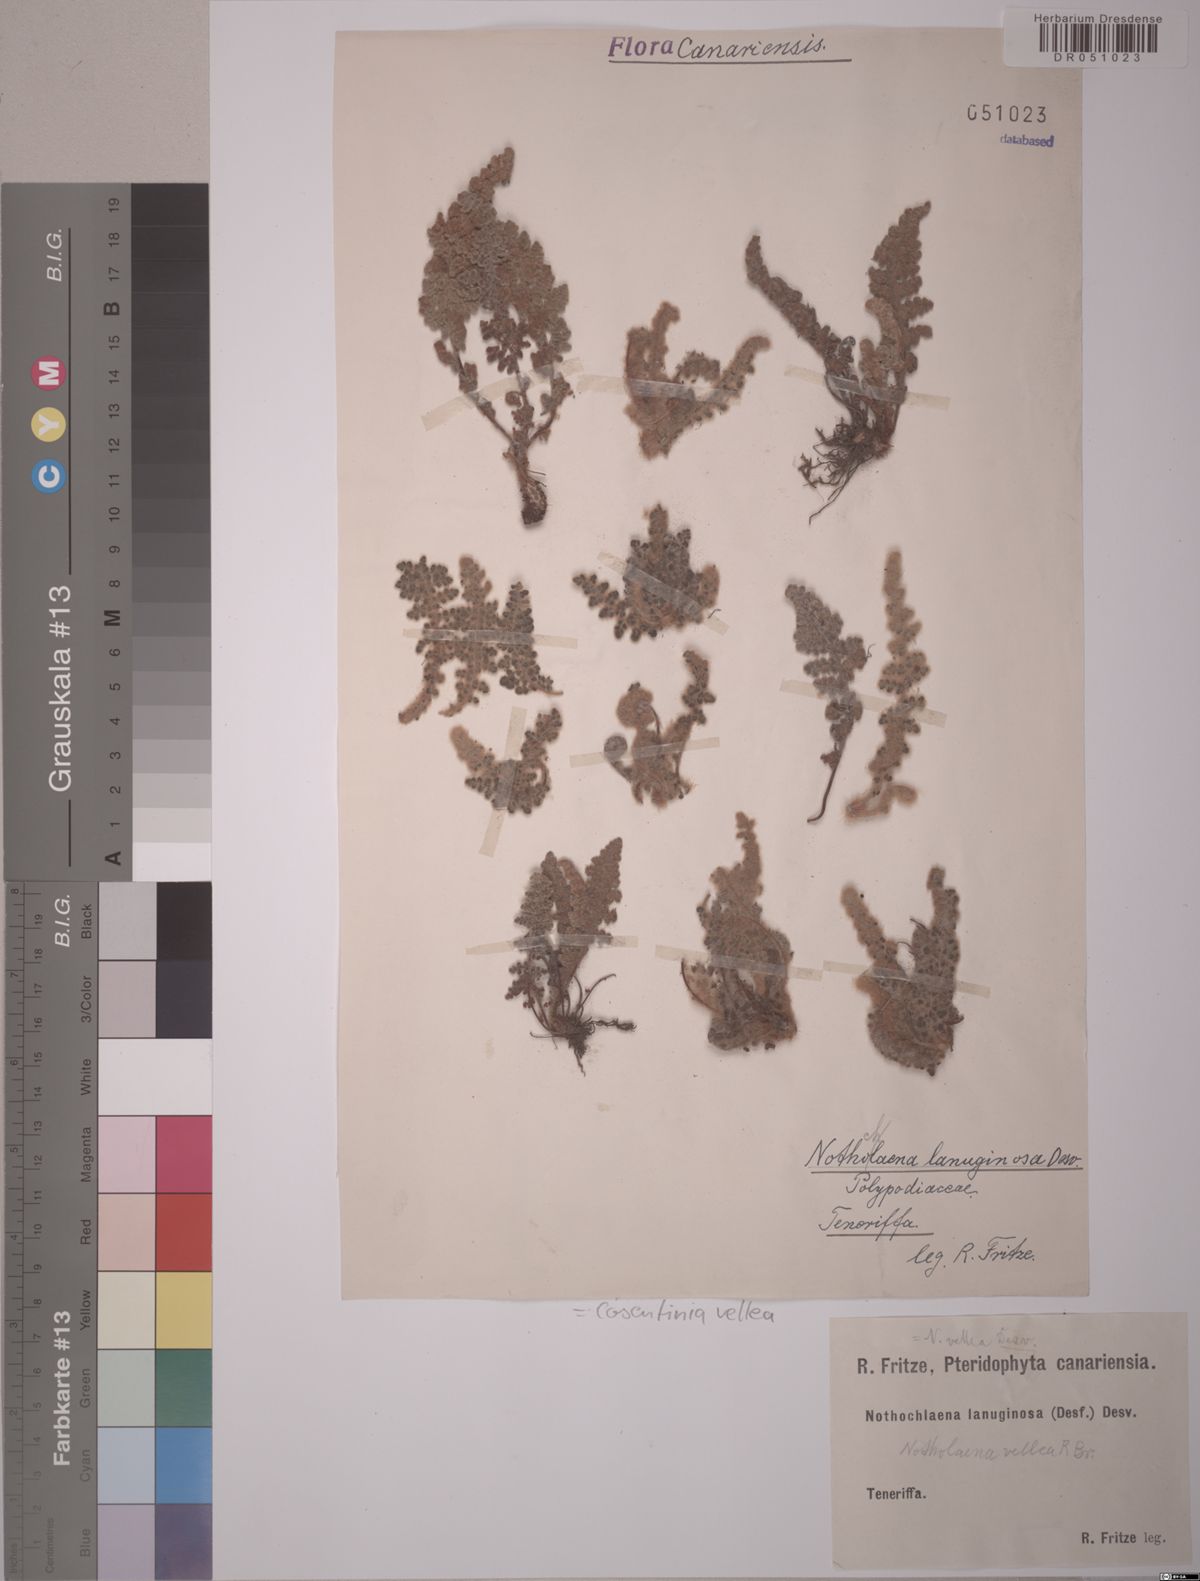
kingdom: Plantae
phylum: Tracheophyta
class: Polypodiopsida
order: Polypodiales
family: Pteridaceae
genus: Cosentinia
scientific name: Cosentinia vellea
